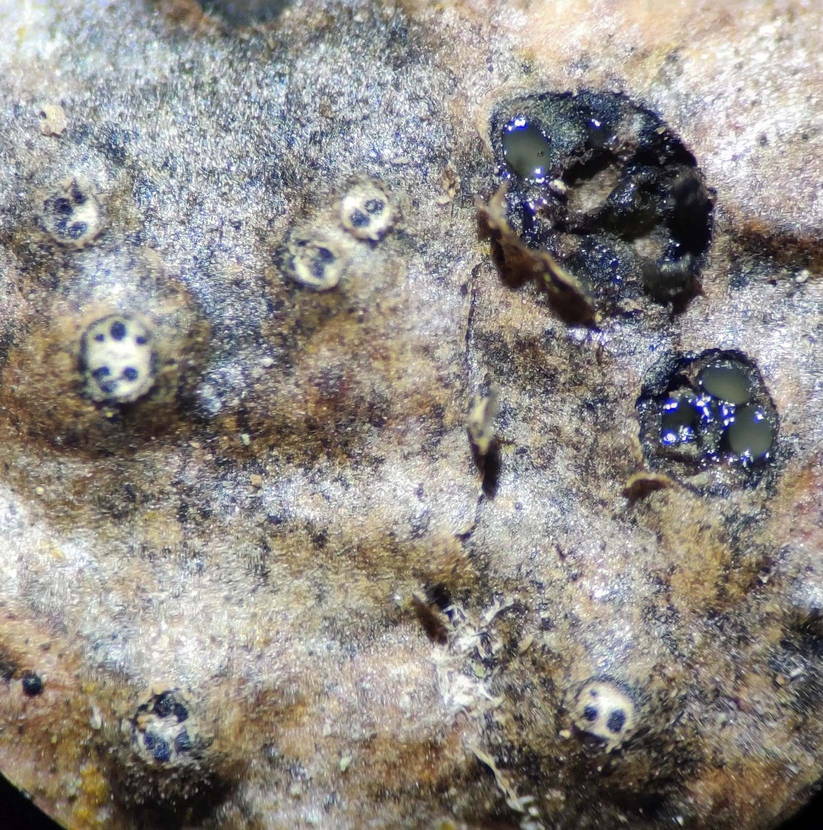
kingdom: Fungi
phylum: Ascomycota
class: Sordariomycetes
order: Diaporthales
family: Valsaceae
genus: Cytospora
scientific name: Cytospora nivea
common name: hvidskivet kulknippe
